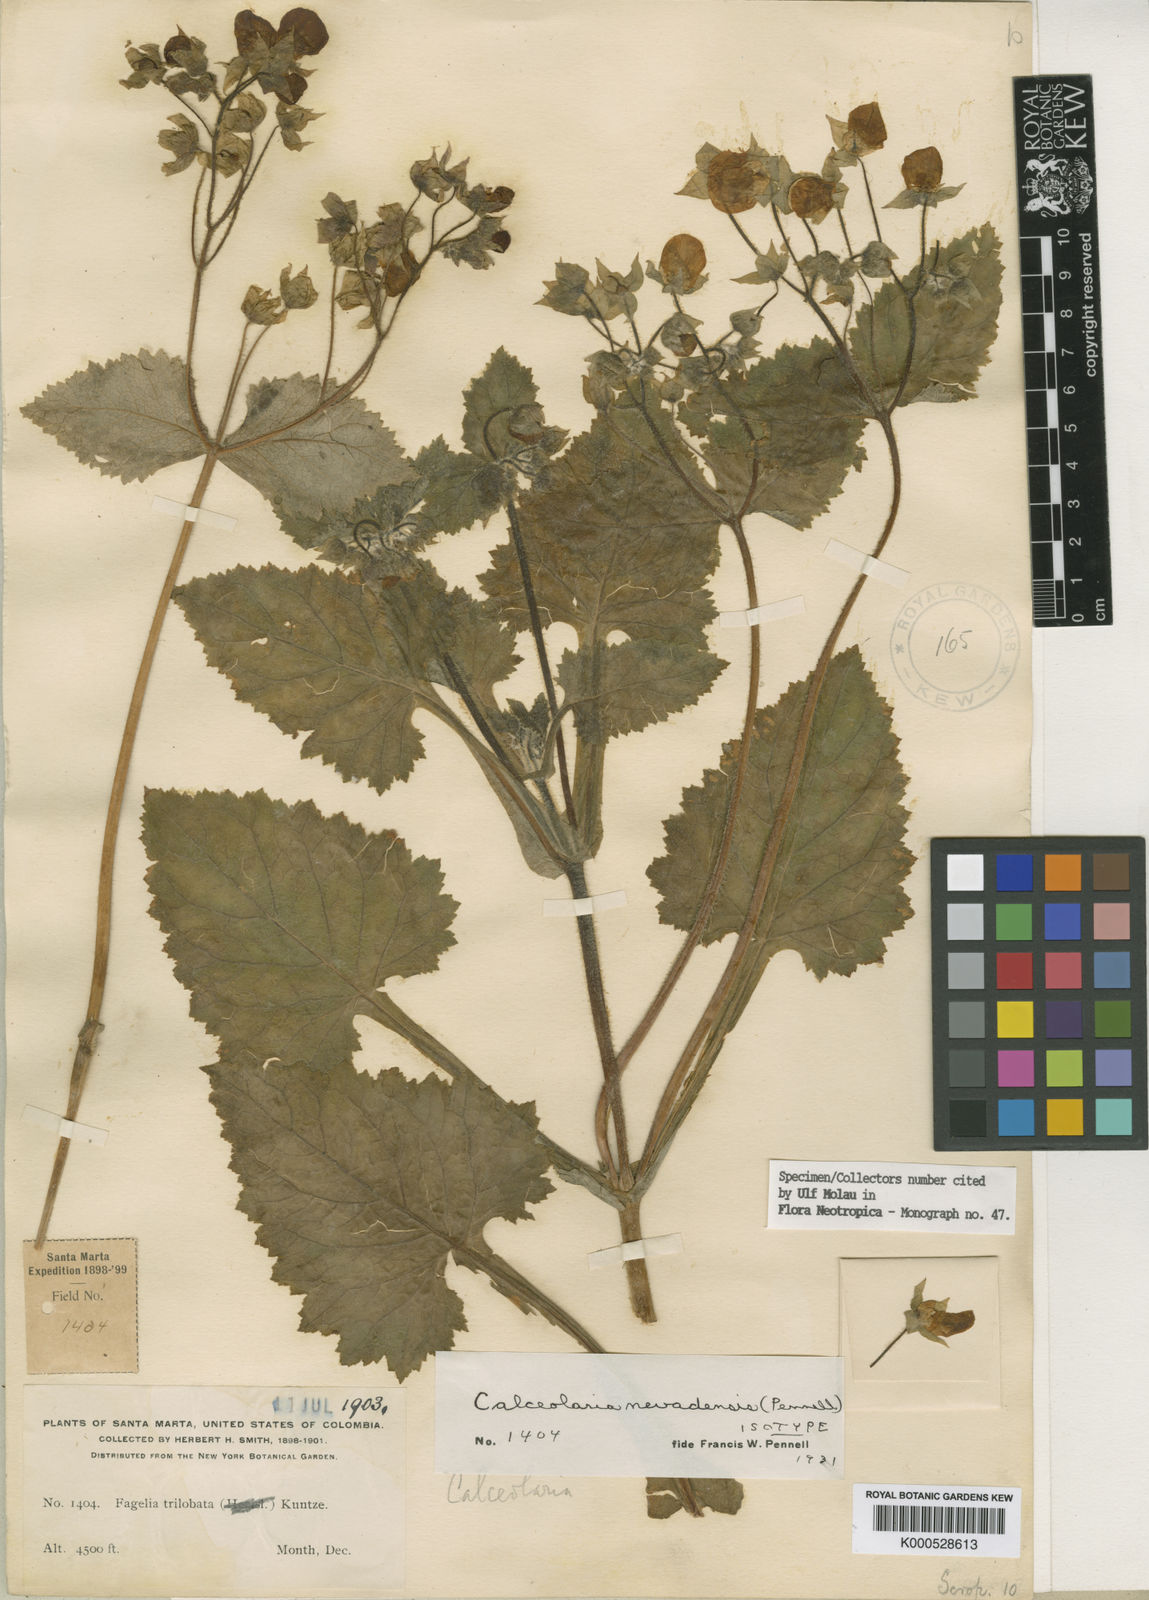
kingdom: Plantae
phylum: Tracheophyta
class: Magnoliopsida
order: Lamiales
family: Calceolariaceae
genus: Calceolaria
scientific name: Calceolaria nevadensis
